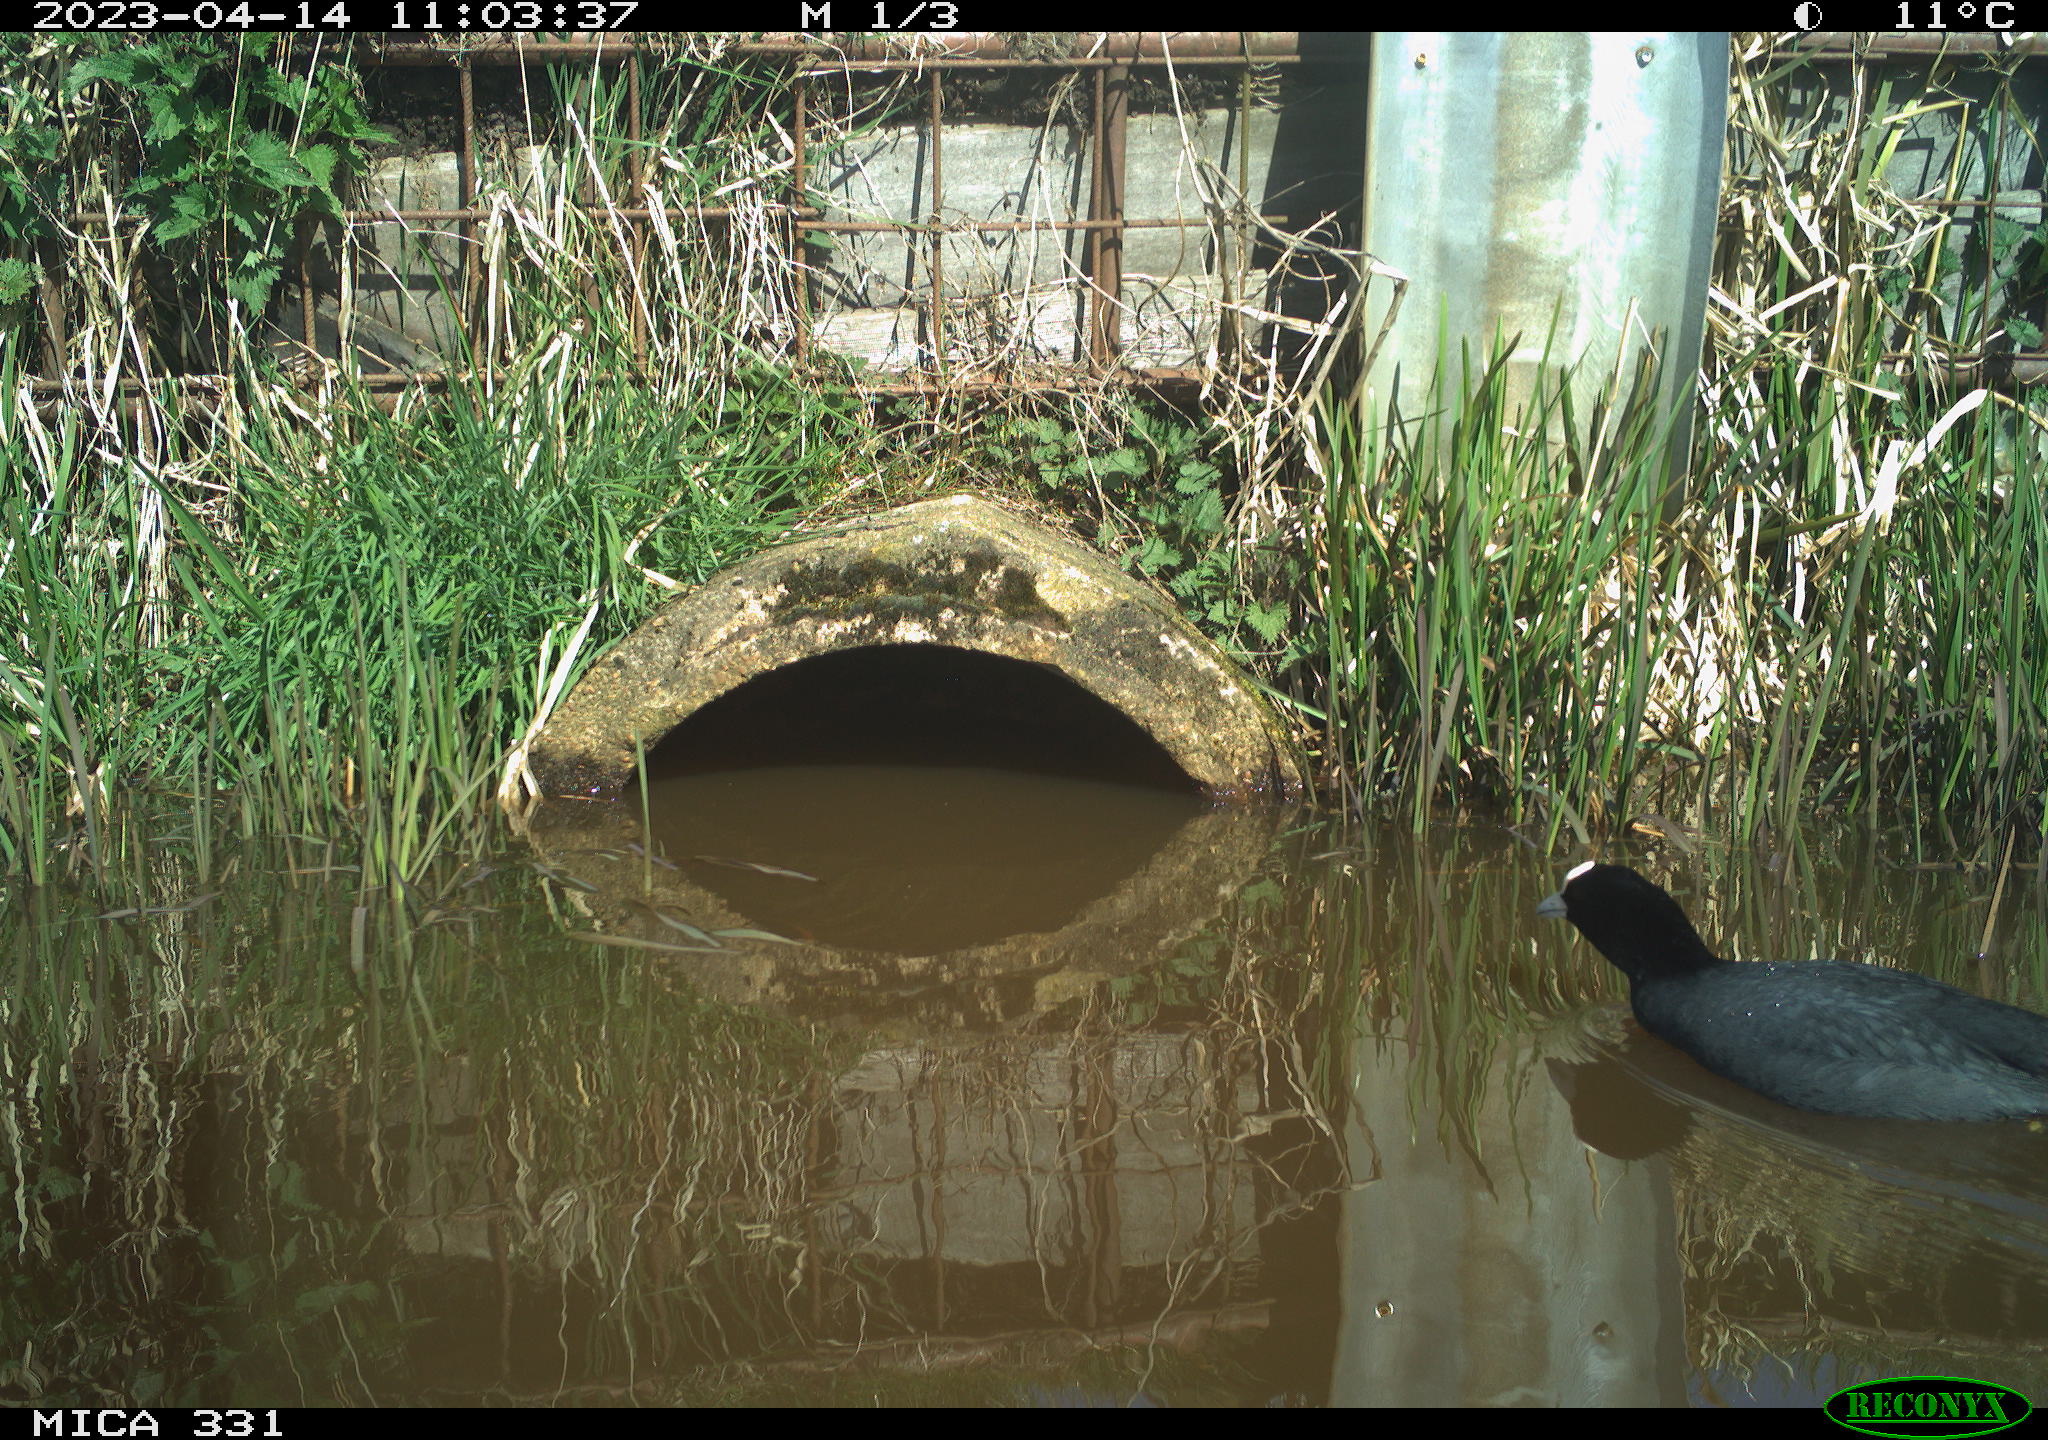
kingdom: Animalia
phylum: Chordata
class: Aves
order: Gruiformes
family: Rallidae
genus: Fulica
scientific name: Fulica atra
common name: Eurasian coot
